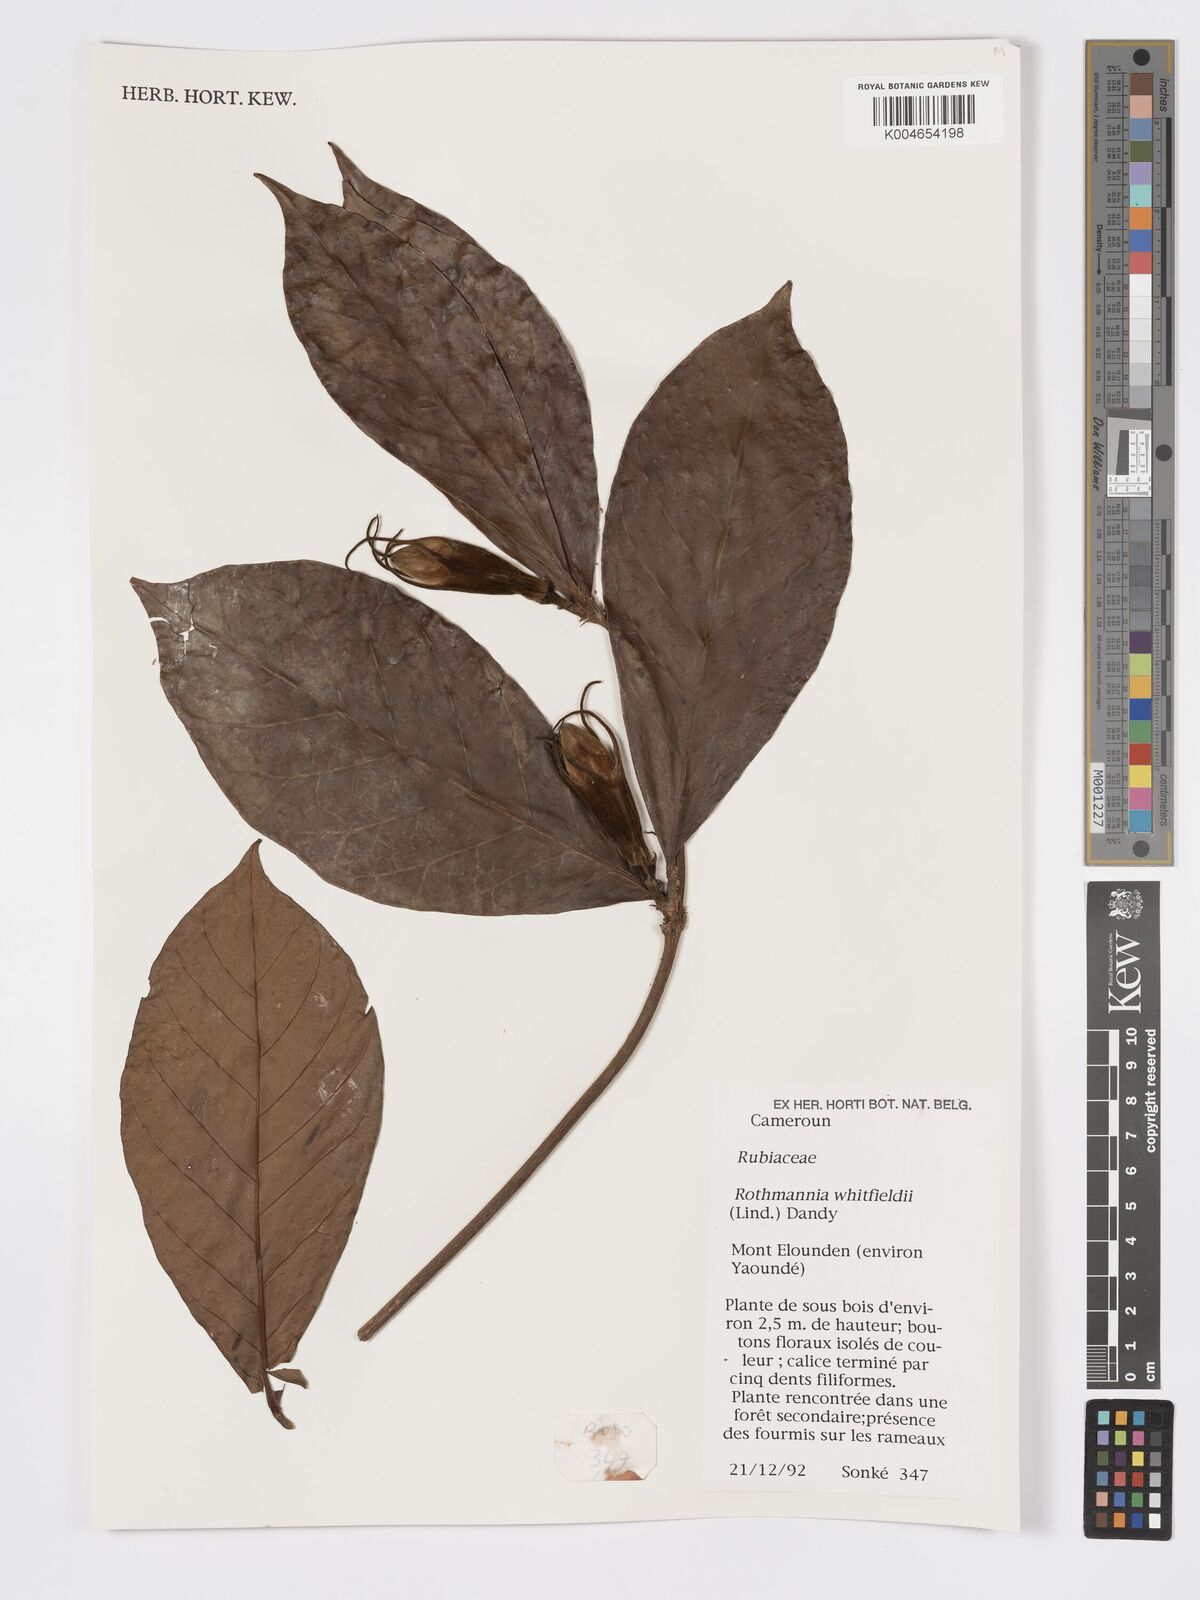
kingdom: Plantae
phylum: Tracheophyta
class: Magnoliopsida
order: Gentianales
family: Rubiaceae
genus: Rothmannia
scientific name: Rothmannia whitfieldii
